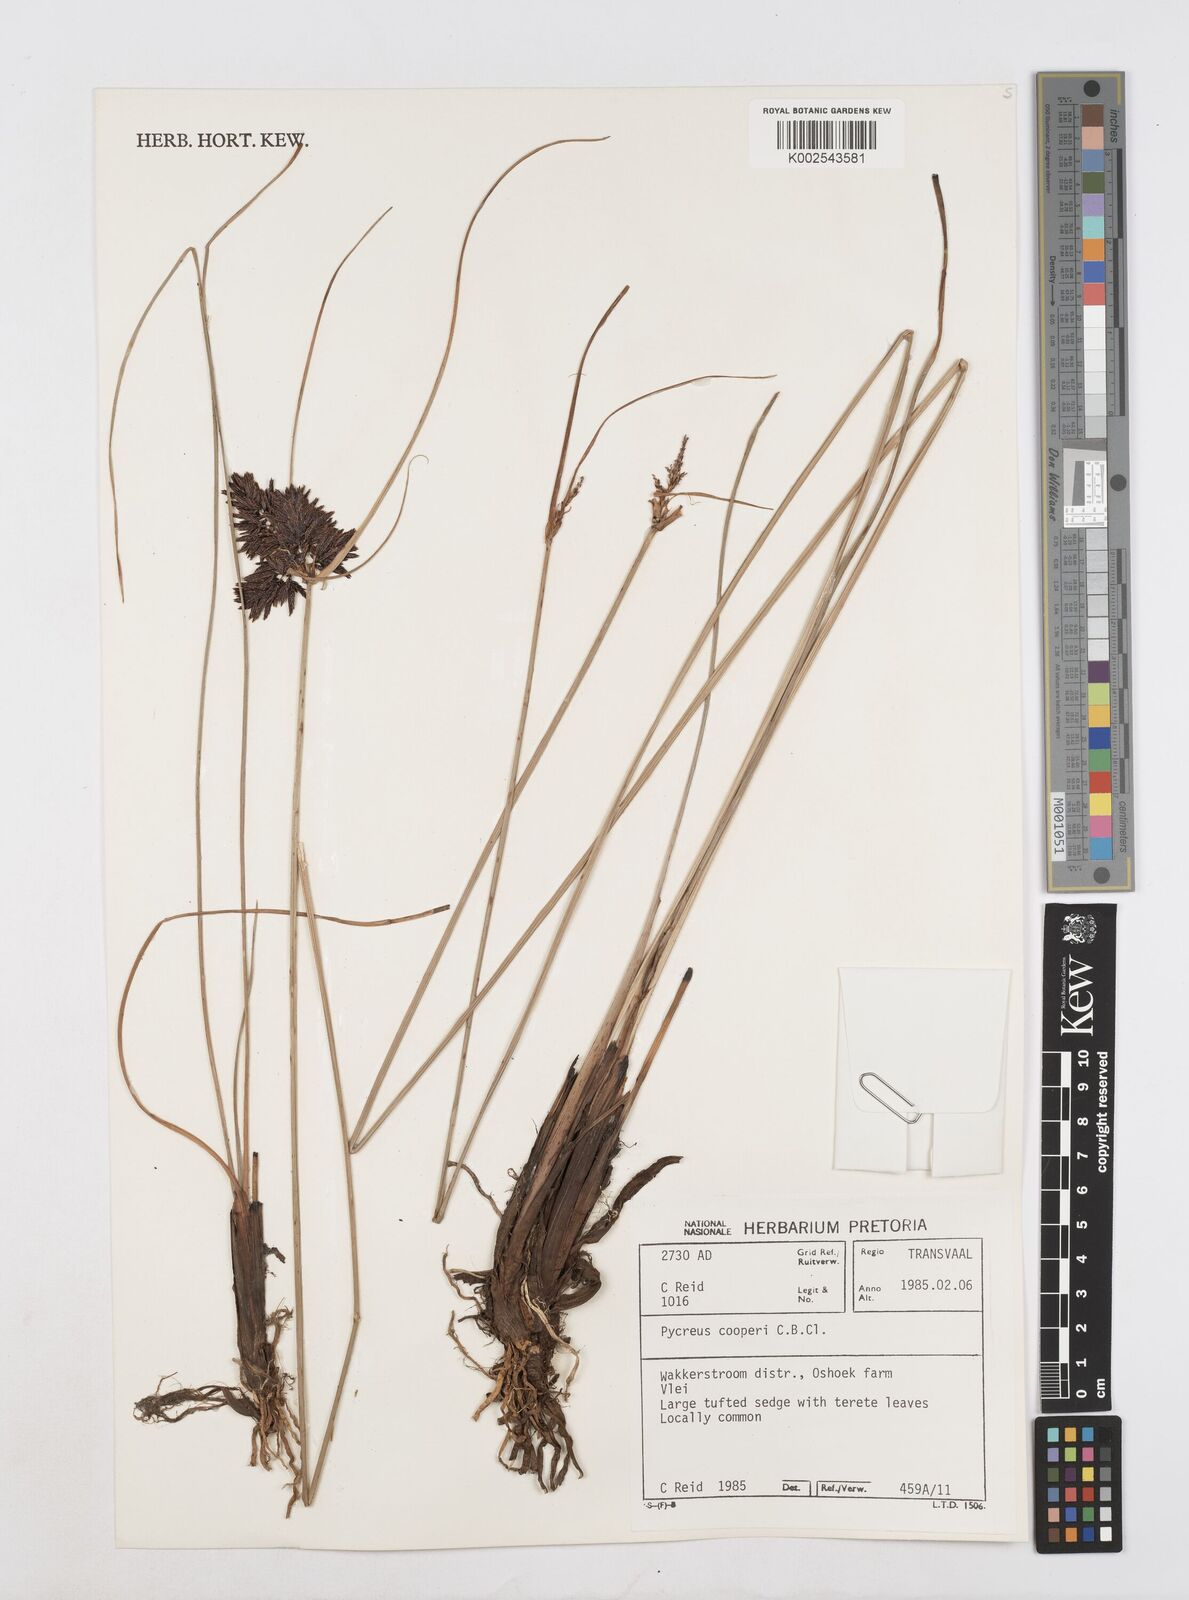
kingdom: Plantae
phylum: Tracheophyta
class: Liliopsida
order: Poales
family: Cyperaceae
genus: Cyperus
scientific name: Cyperus
